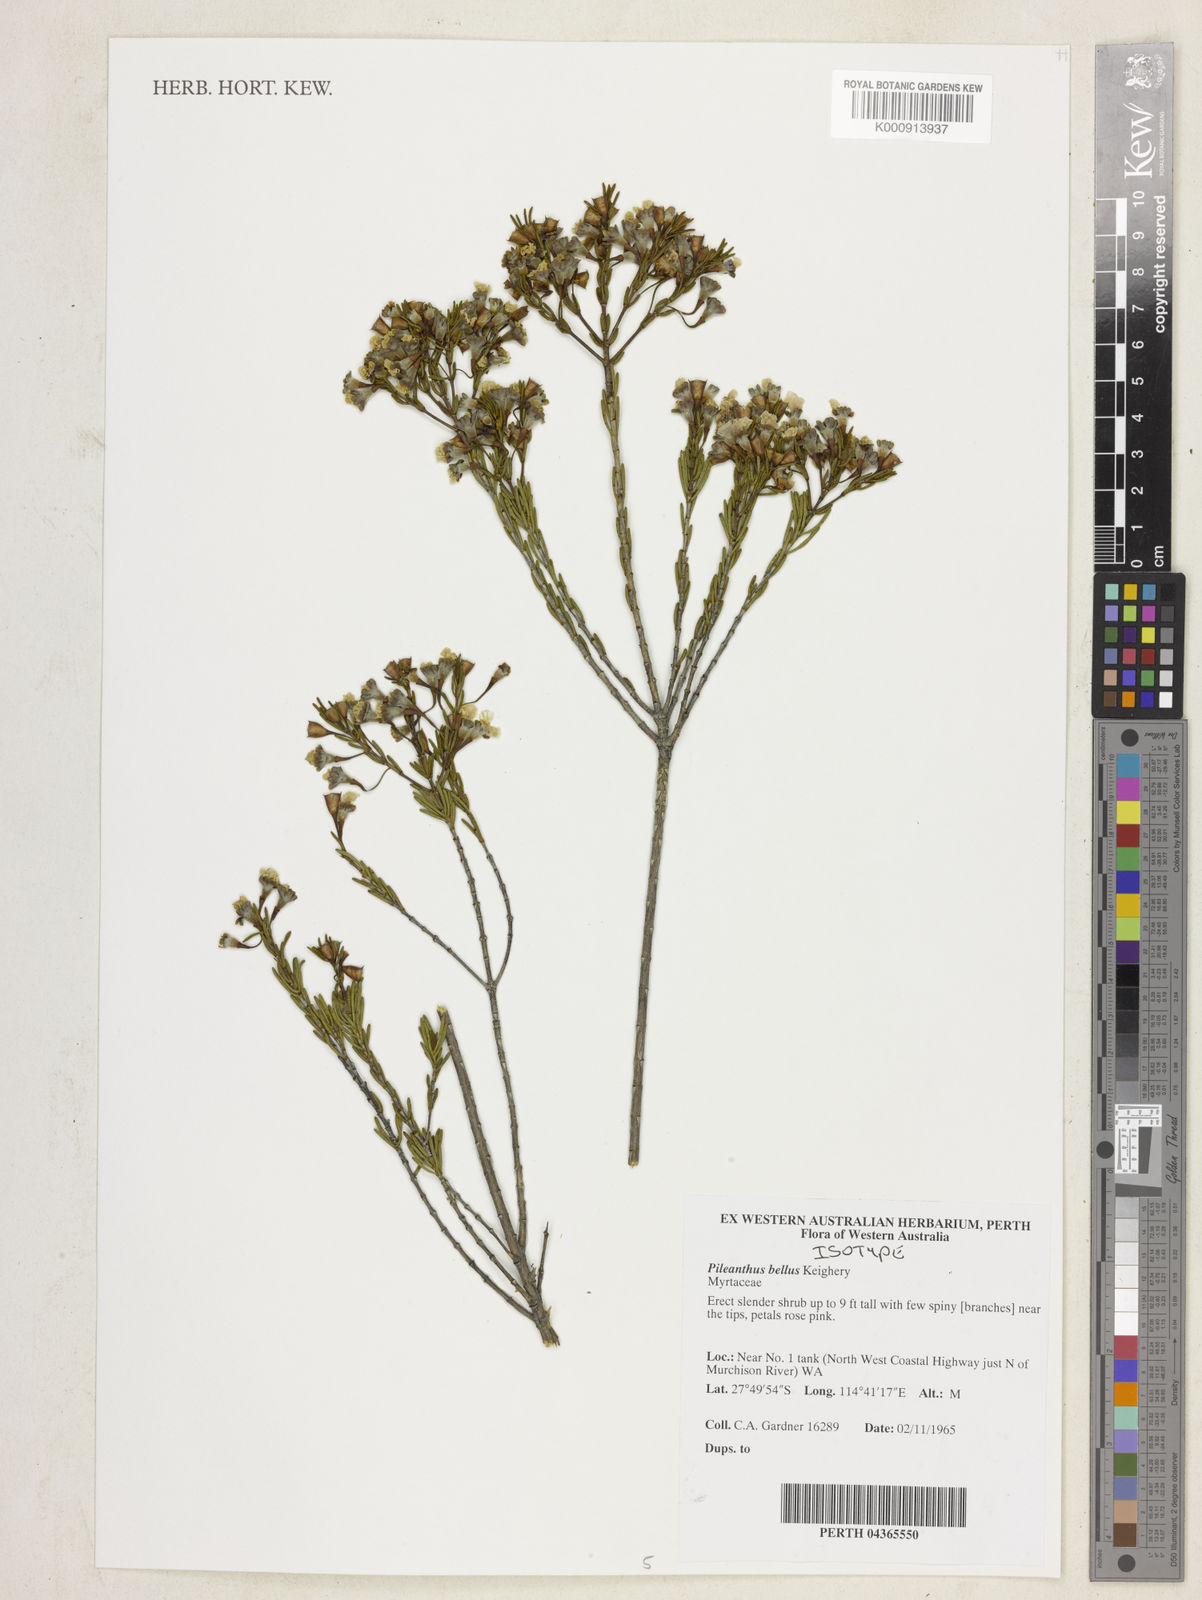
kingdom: Plantae
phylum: Tracheophyta
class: Magnoliopsida
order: Myrtales
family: Myrtaceae
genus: Pileanthus
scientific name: Pileanthus bellus
